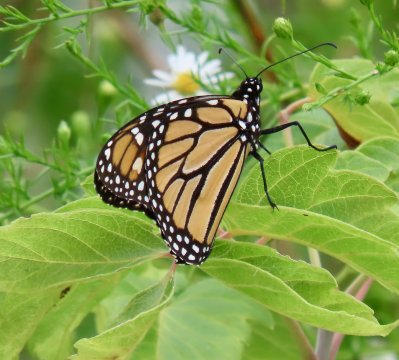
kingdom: Animalia
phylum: Arthropoda
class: Insecta
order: Lepidoptera
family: Nymphalidae
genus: Danaus
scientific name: Danaus plexippus
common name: Monarch
